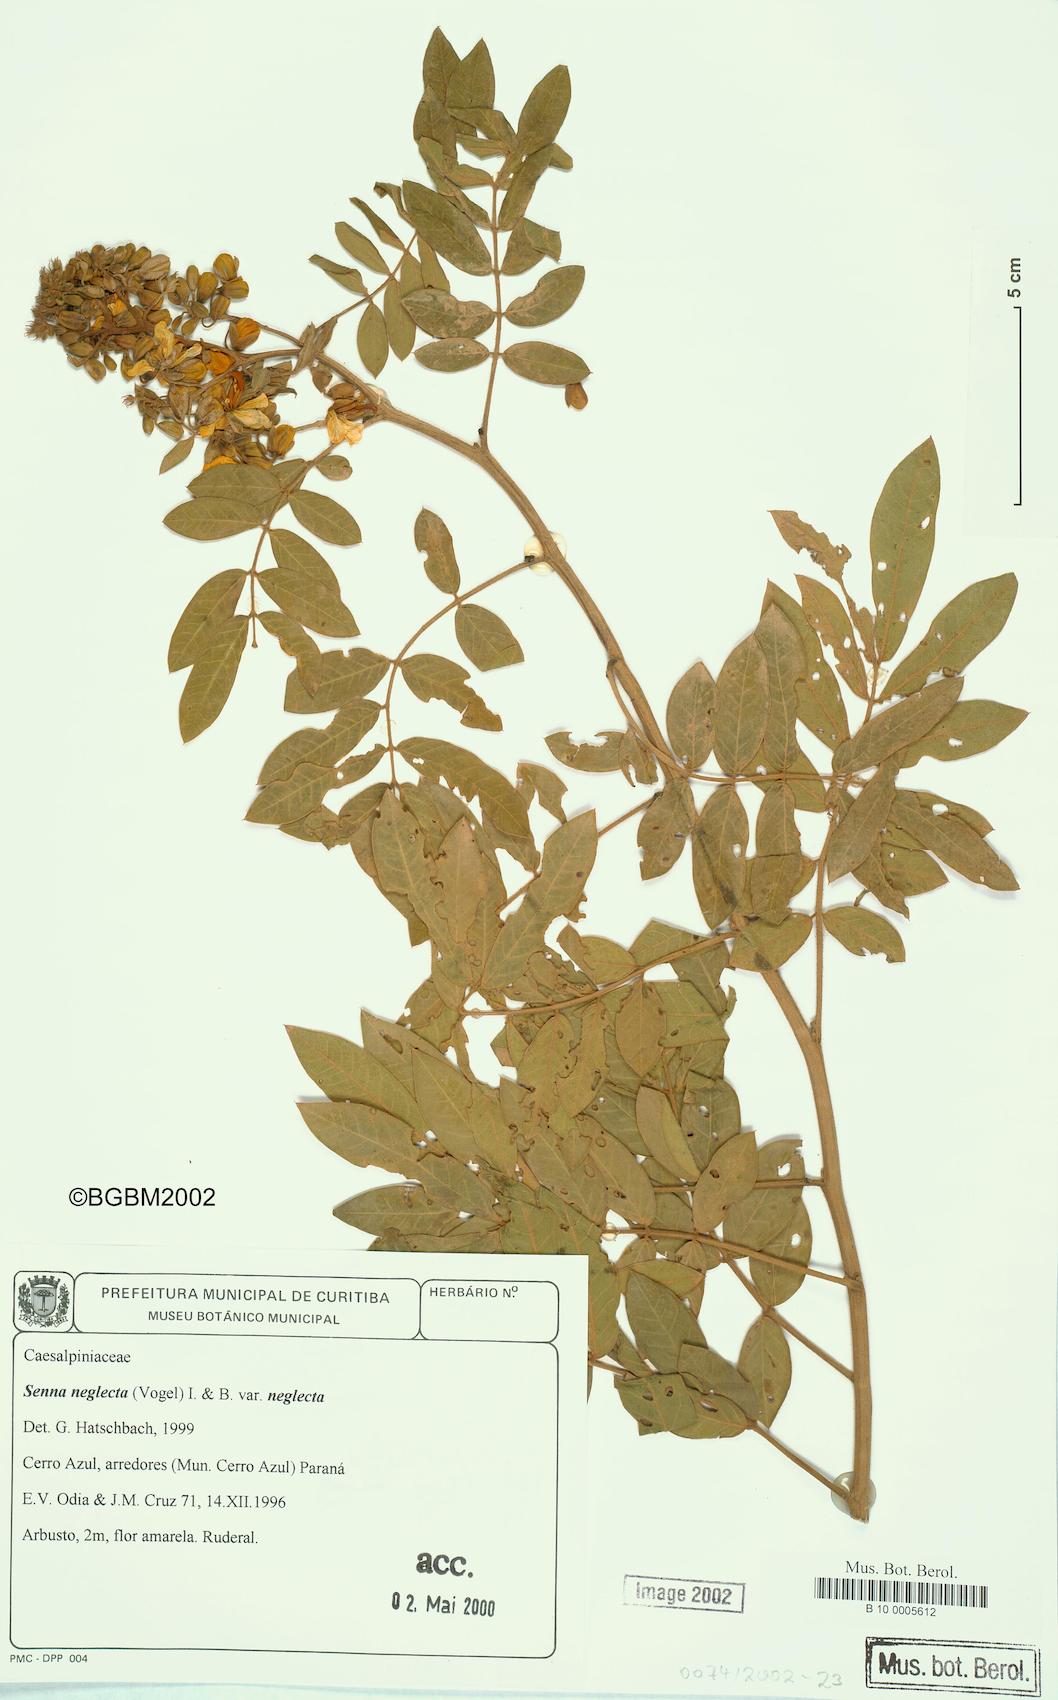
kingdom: Plantae
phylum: Tracheophyta
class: Magnoliopsida
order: Fabales
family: Fabaceae
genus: Senna
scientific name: Senna neglecta
